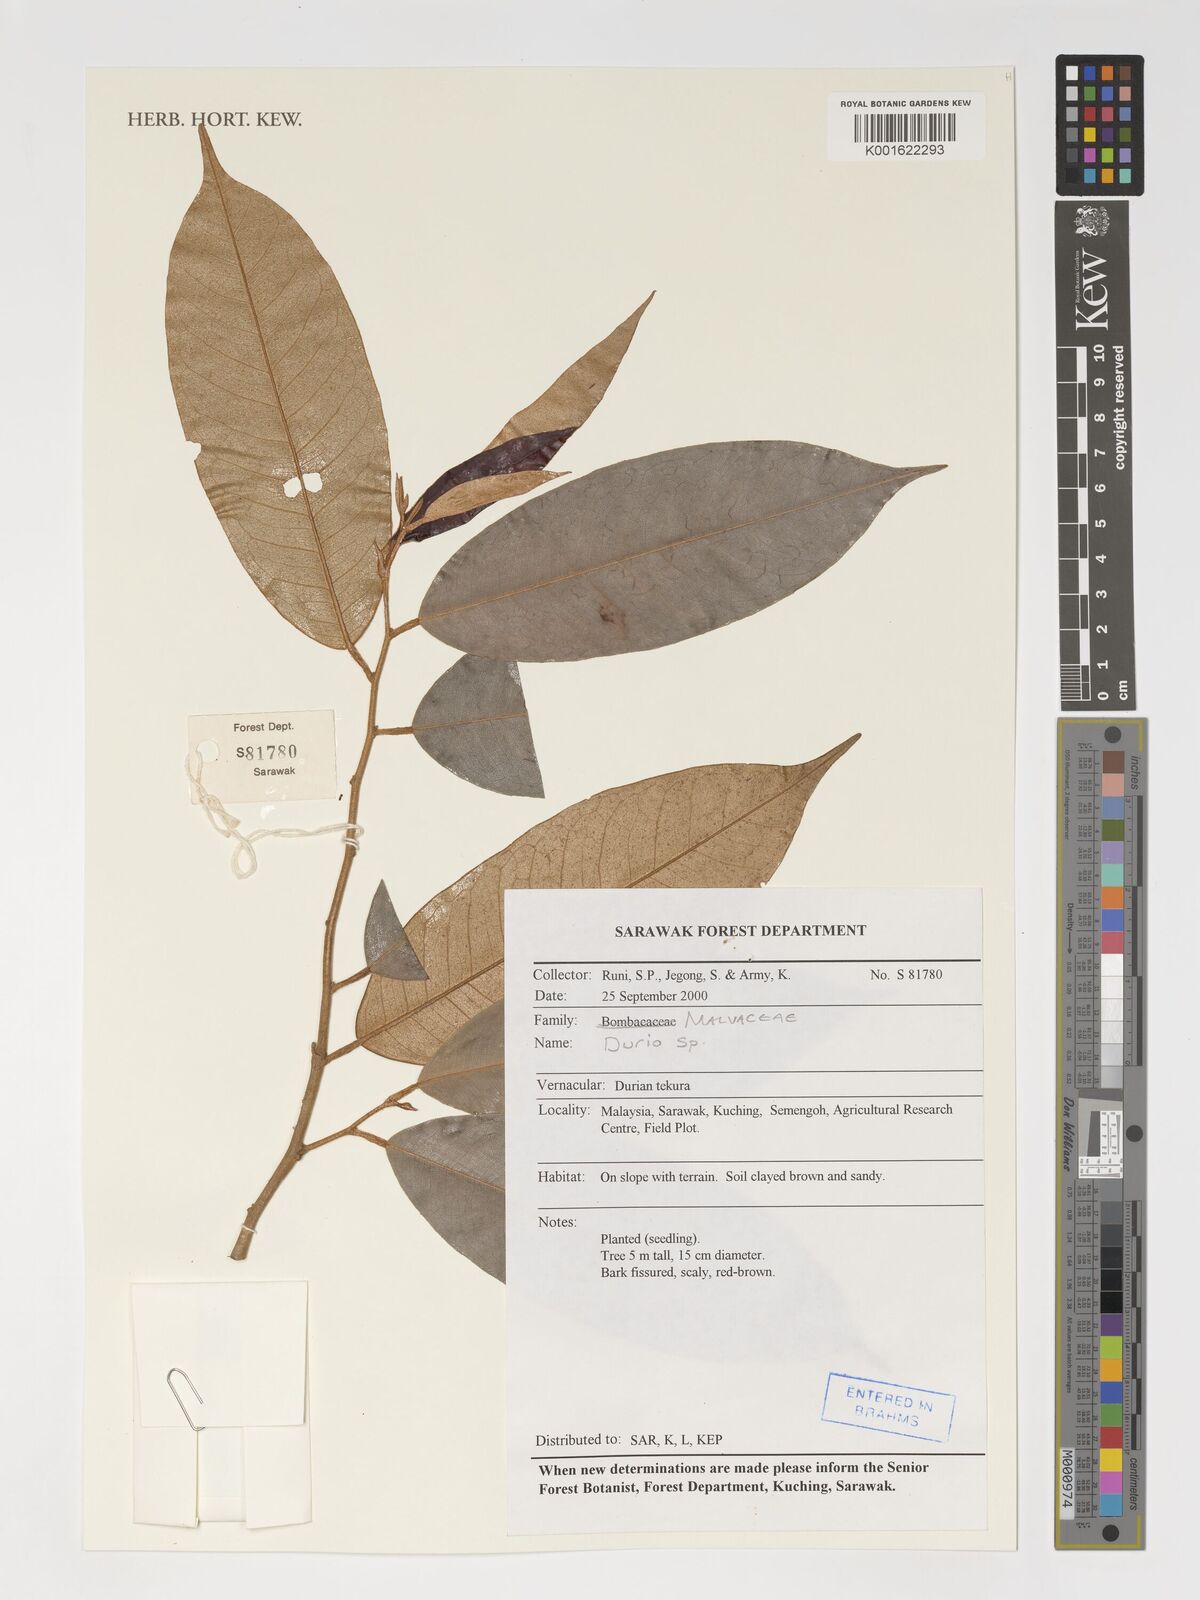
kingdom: Plantae
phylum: Tracheophyta
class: Magnoliopsida
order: Malvales
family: Malvaceae
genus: Durio
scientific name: Durio
